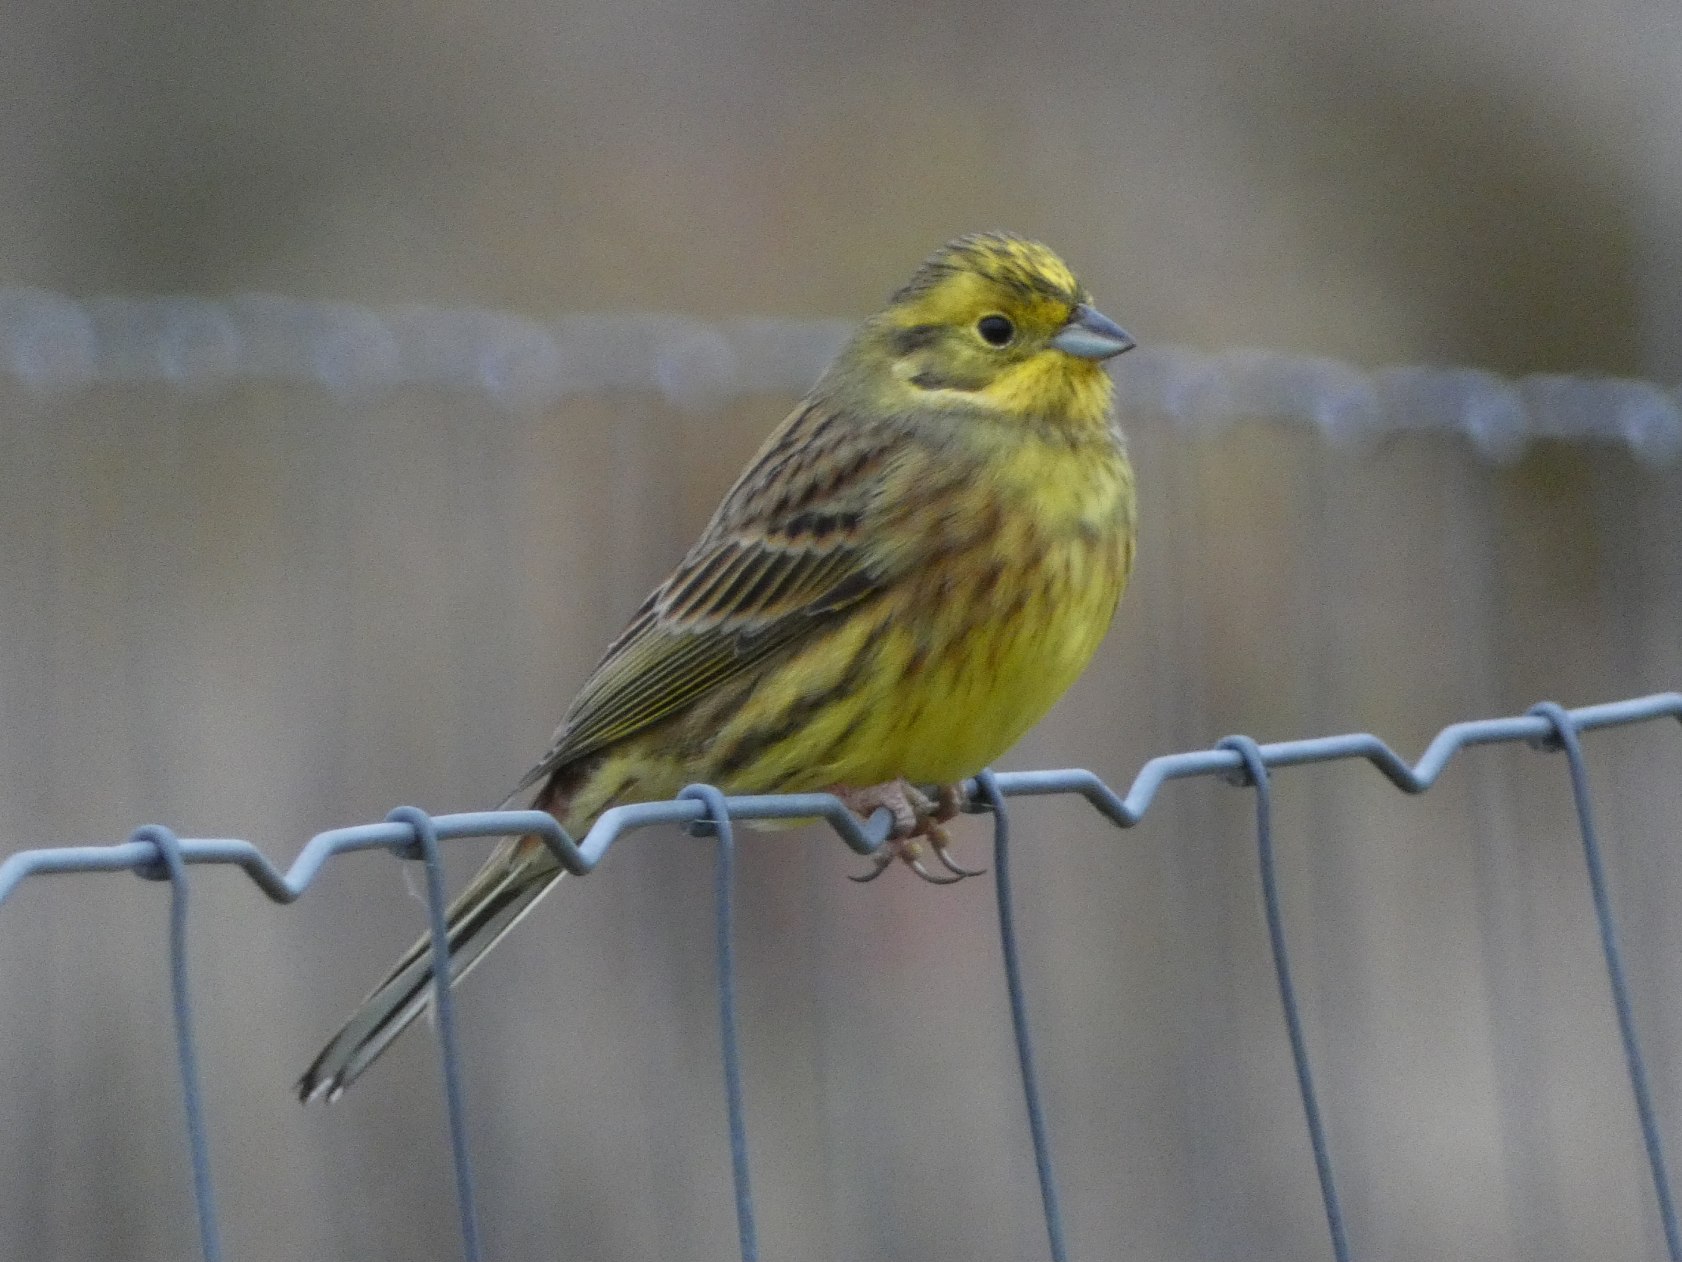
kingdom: Animalia
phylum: Chordata
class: Aves
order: Passeriformes
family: Emberizidae
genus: Emberiza
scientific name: Emberiza citrinella
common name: Gulspurv
